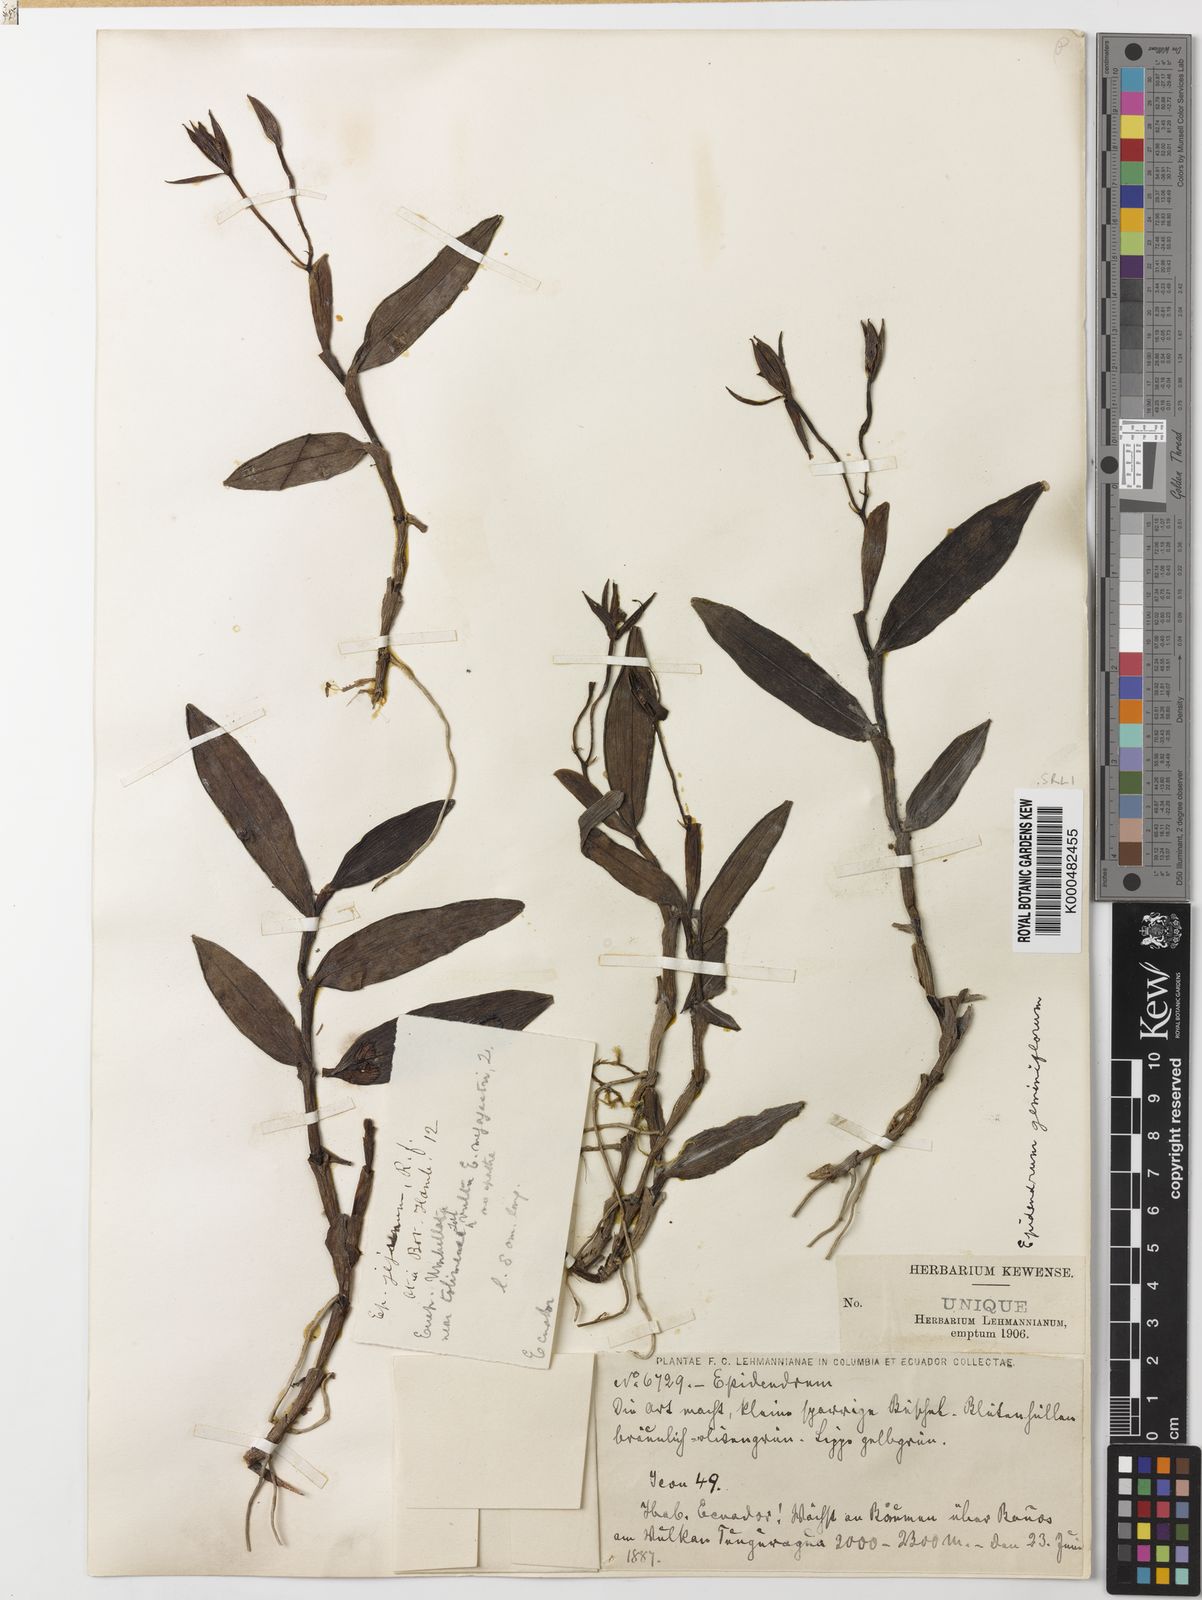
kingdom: Plantae
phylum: Tracheophyta
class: Liliopsida
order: Asparagales
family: Orchidaceae
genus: Epidendrum
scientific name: Epidendrum geminiflorum
